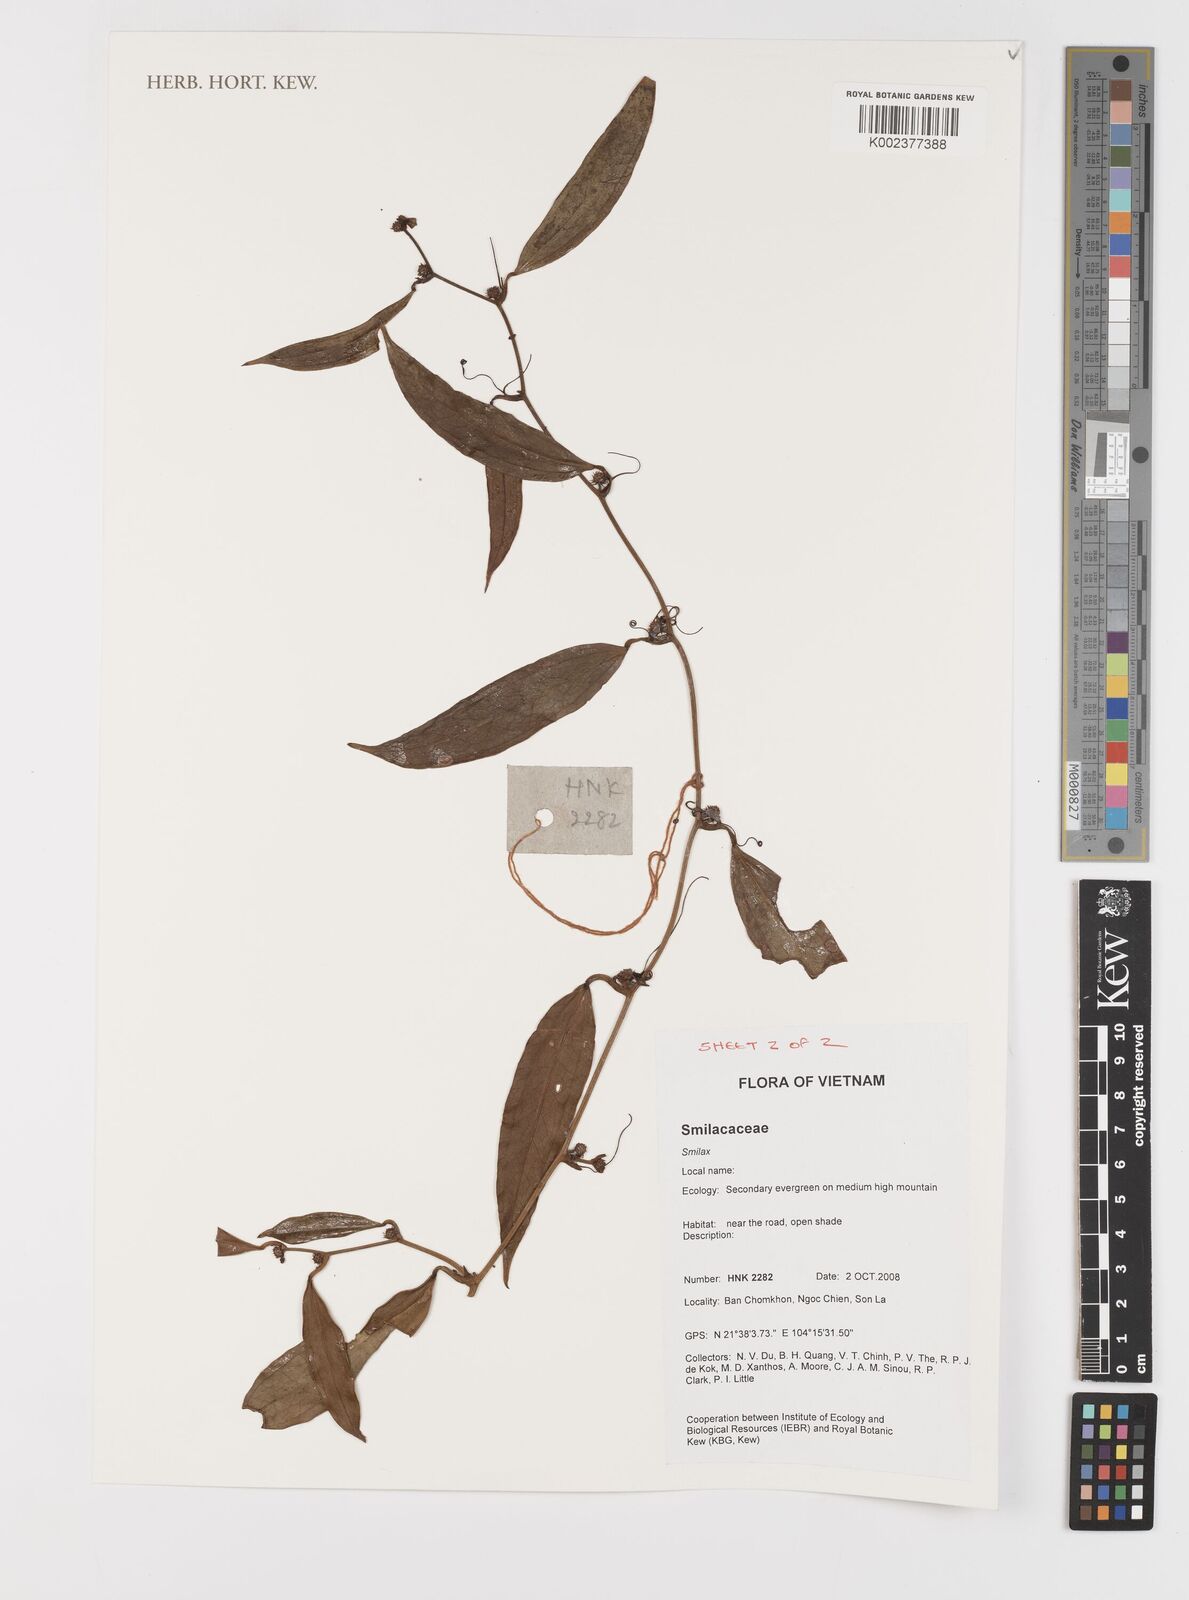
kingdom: Plantae
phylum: Tracheophyta
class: Liliopsida
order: Liliales
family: Smilacaceae
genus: Smilax
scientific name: Smilax
